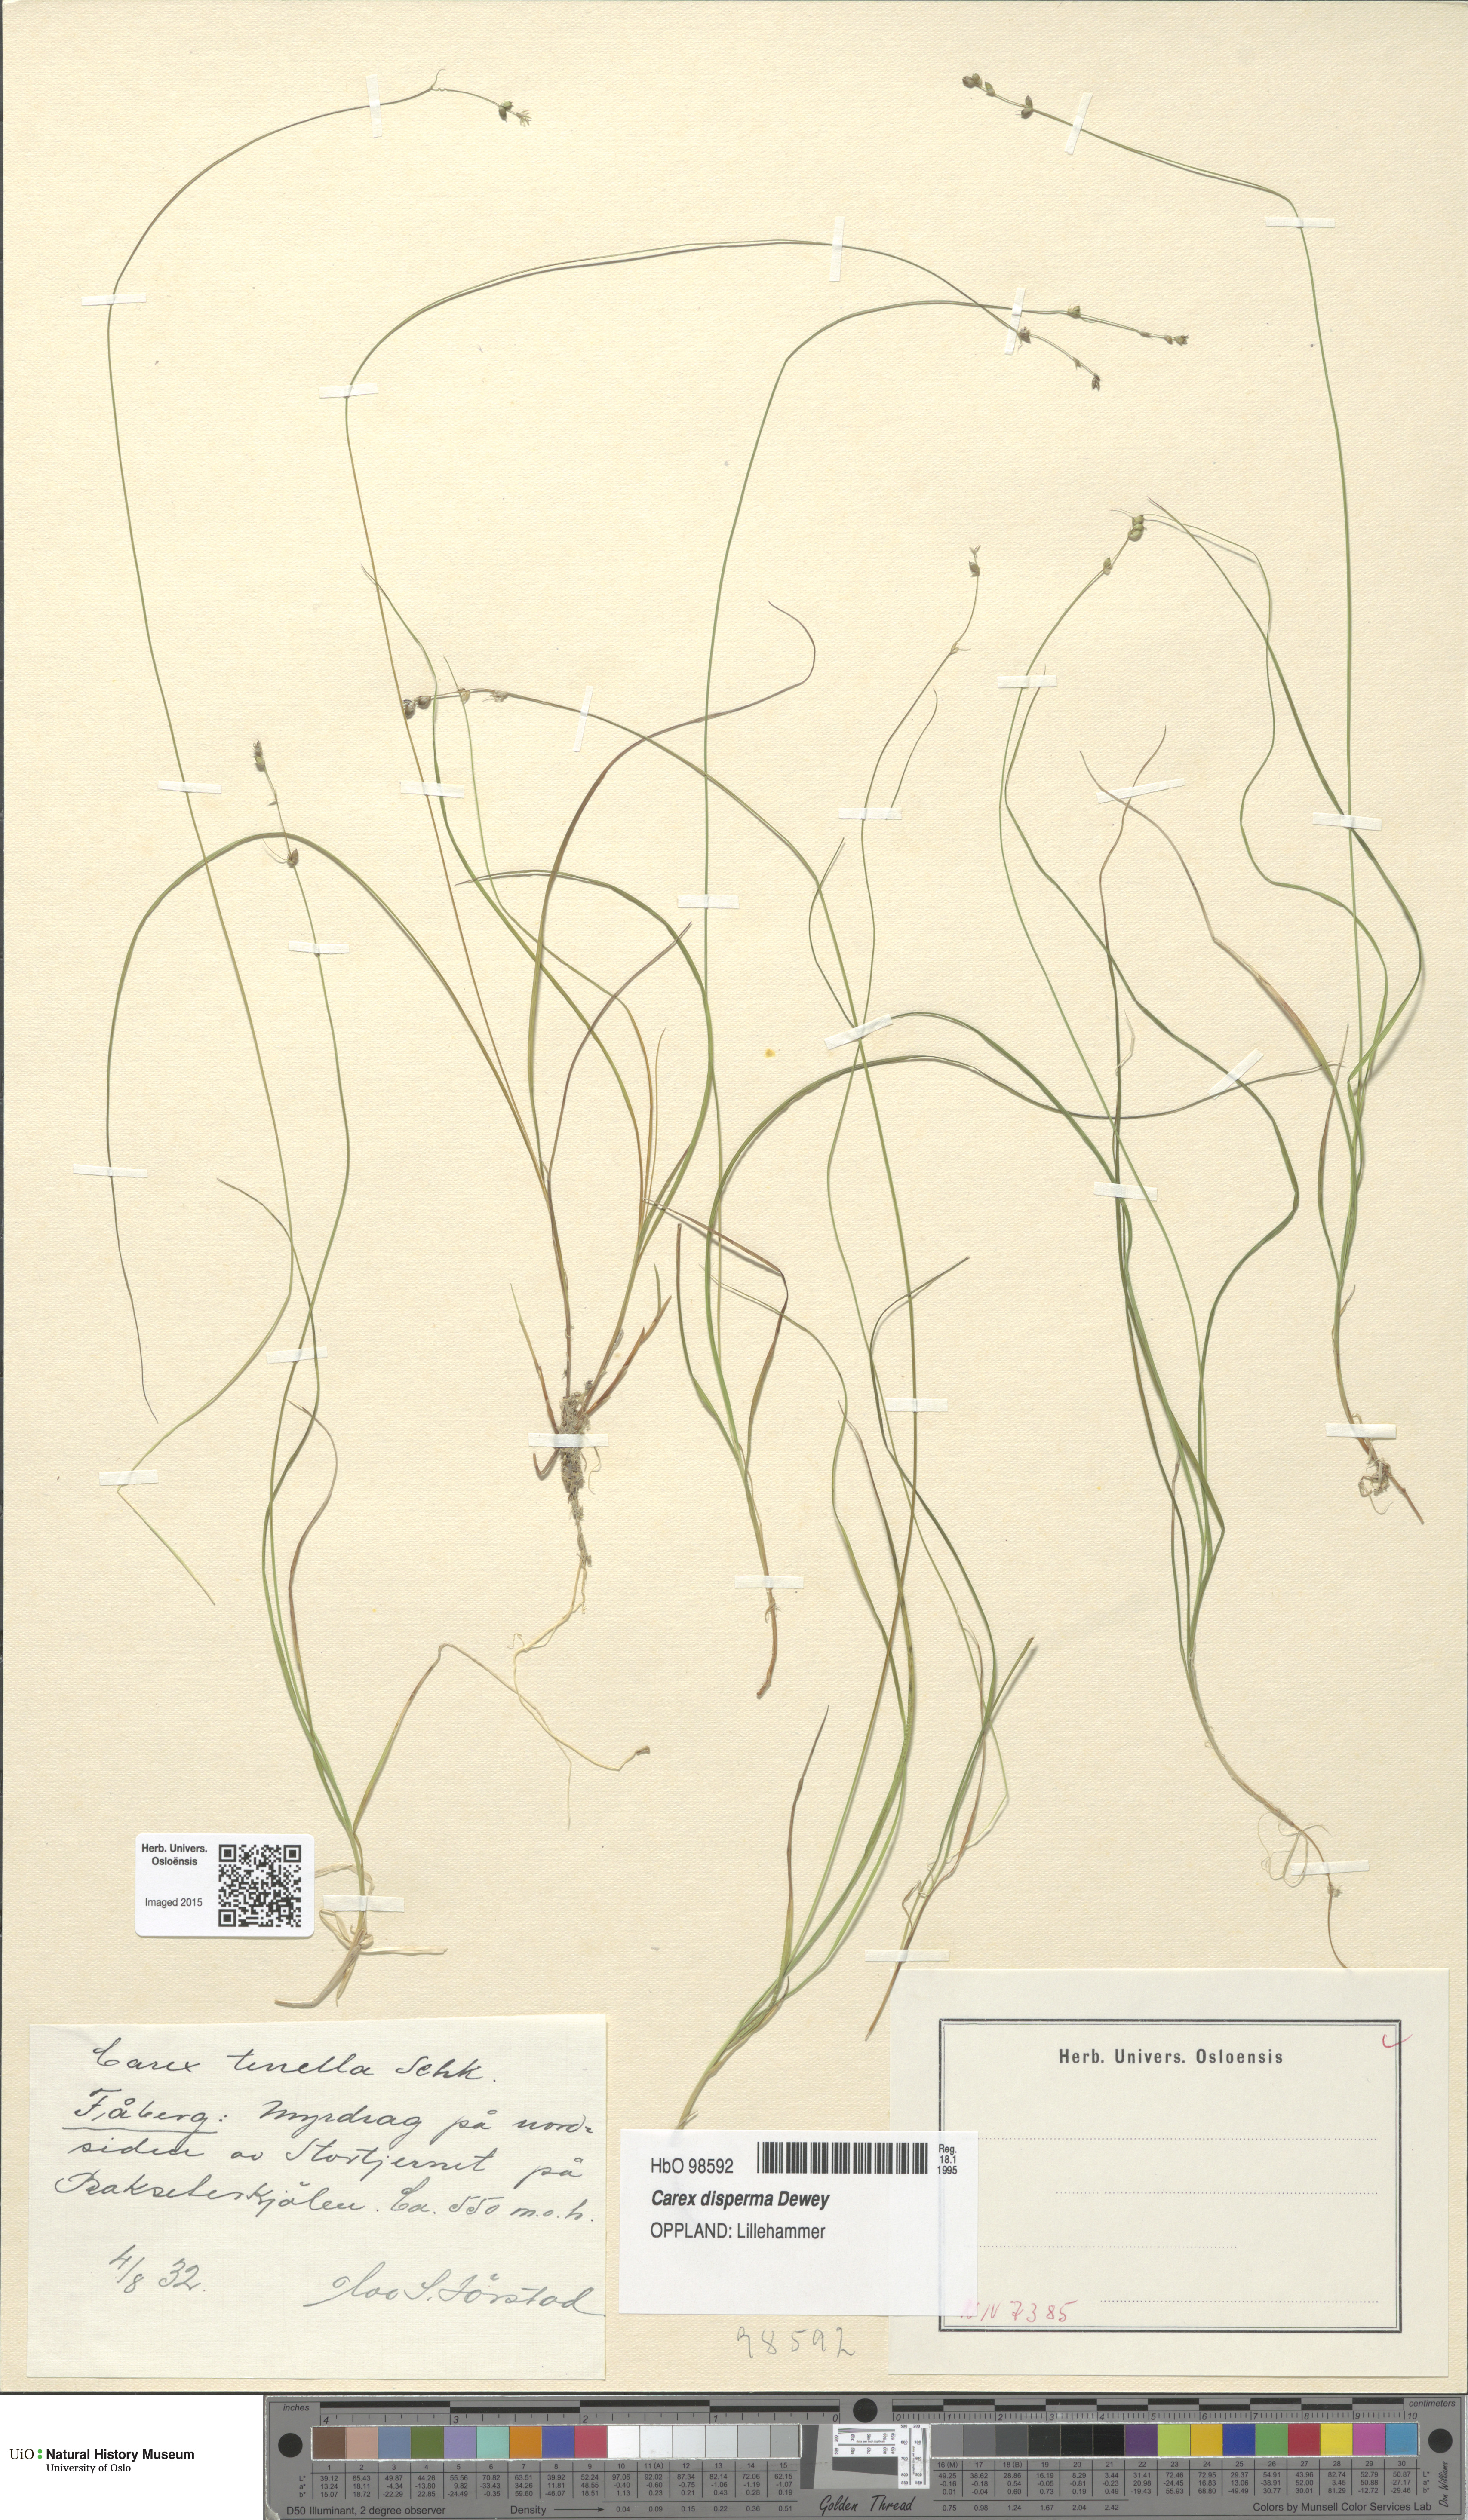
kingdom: Plantae
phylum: Tracheophyta
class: Liliopsida
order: Poales
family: Cyperaceae
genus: Carex
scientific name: Carex disperma
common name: Short-leaved sedge
